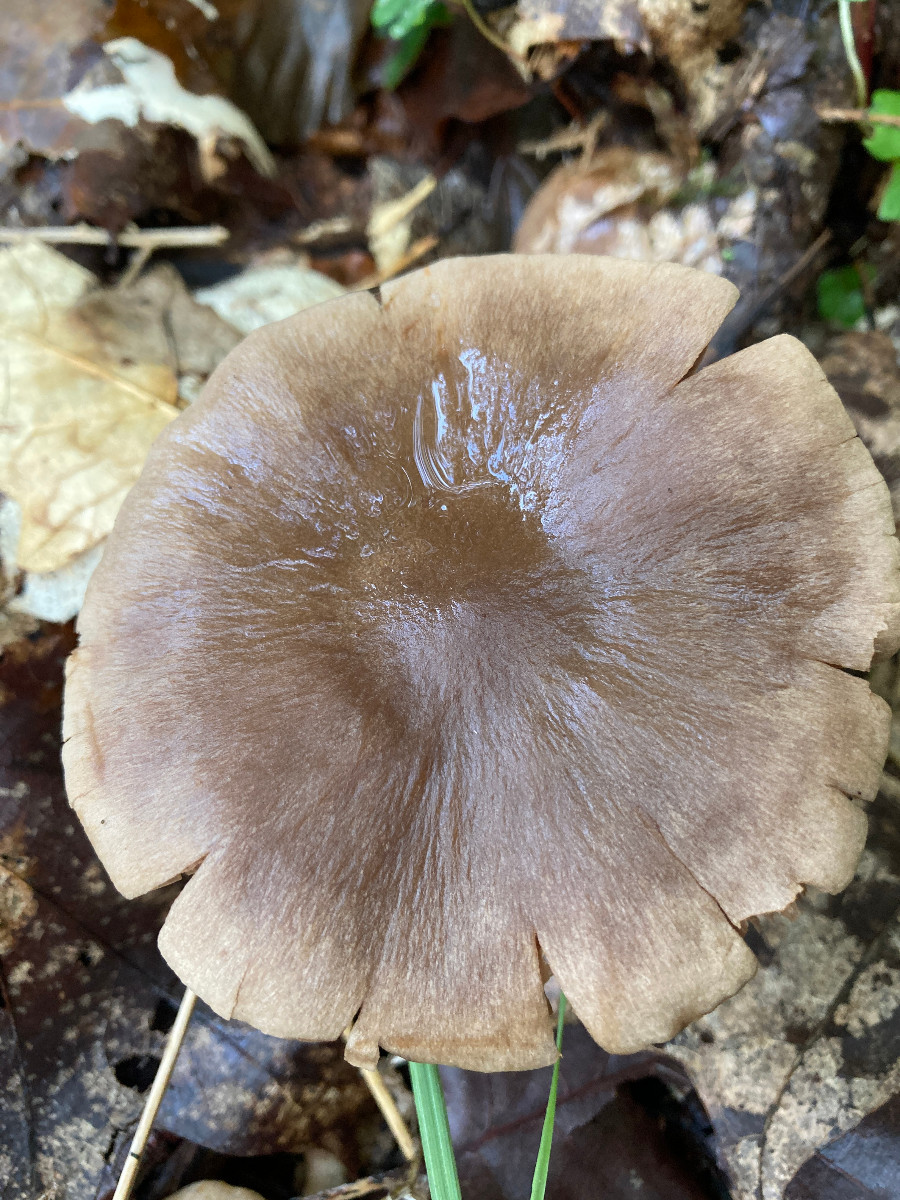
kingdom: Fungi
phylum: Basidiomycota
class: Agaricomycetes
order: Agaricales
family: Cortinariaceae
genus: Cortinarius
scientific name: Cortinarius
